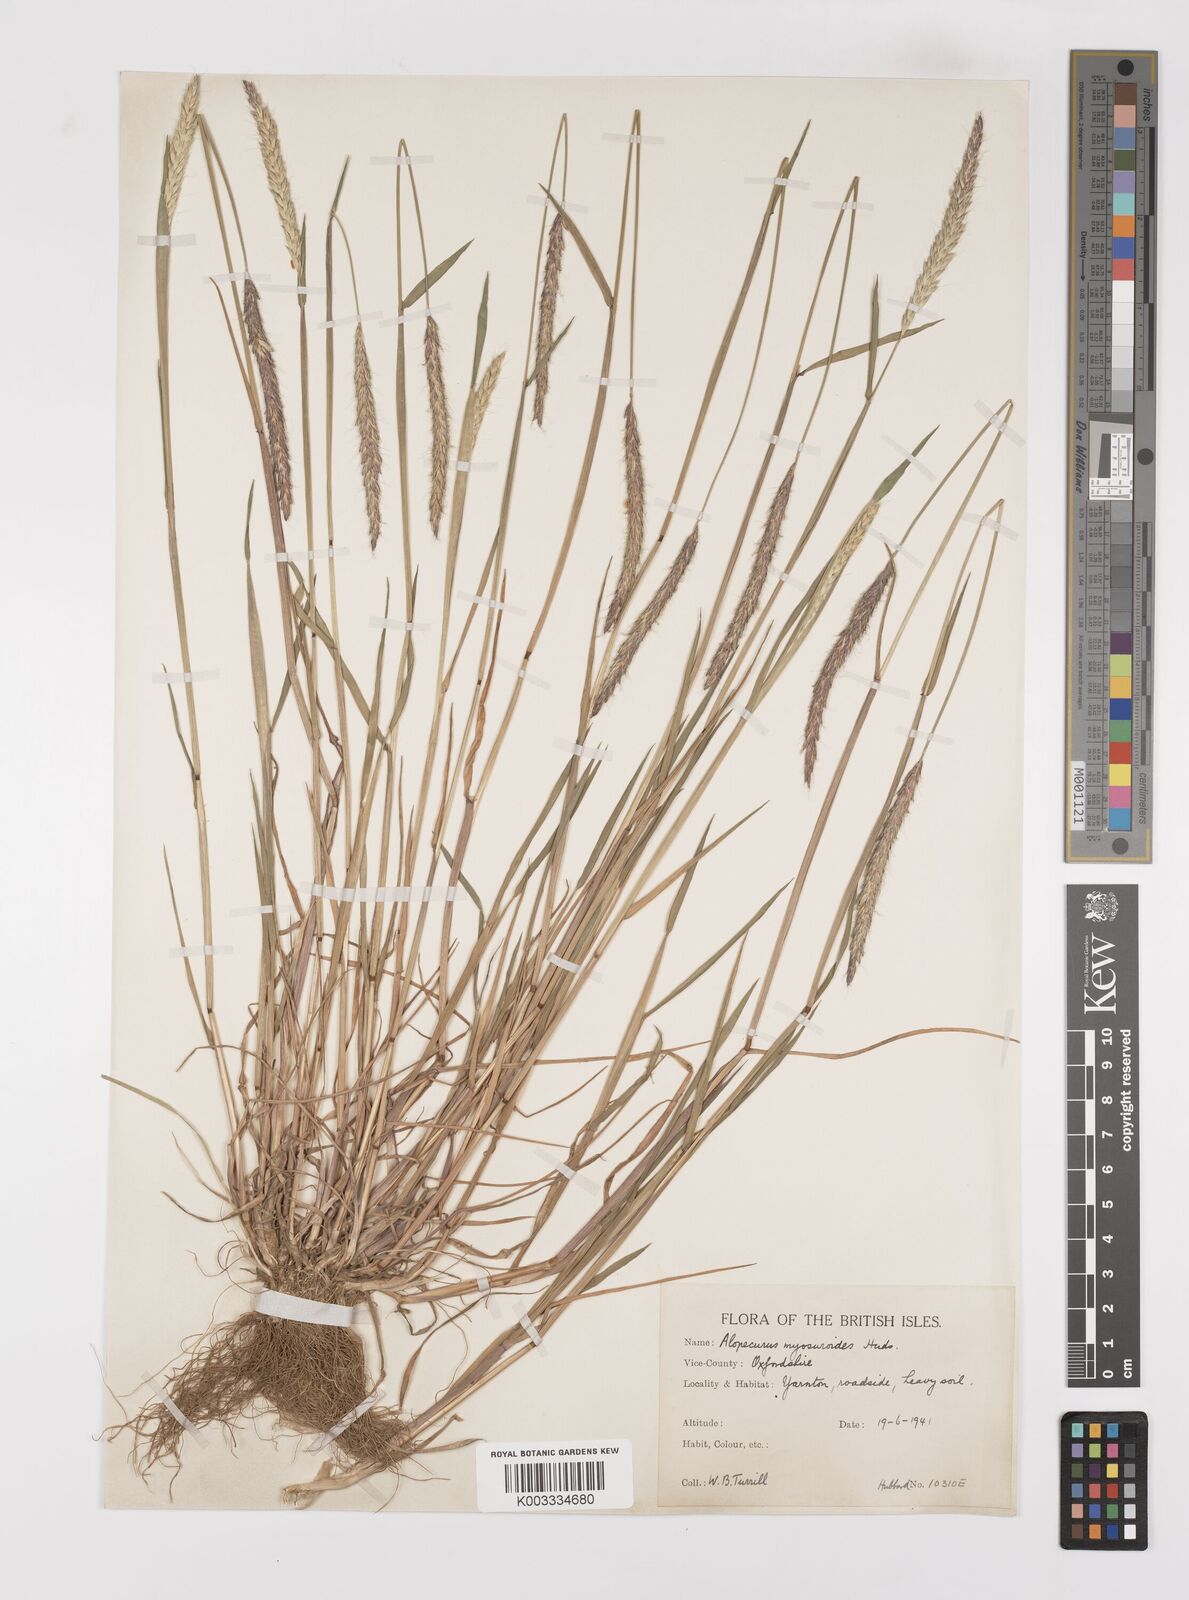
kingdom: Plantae
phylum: Tracheophyta
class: Liliopsida
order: Poales
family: Poaceae
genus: Alopecurus
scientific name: Alopecurus myosuroides
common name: Black-grass
